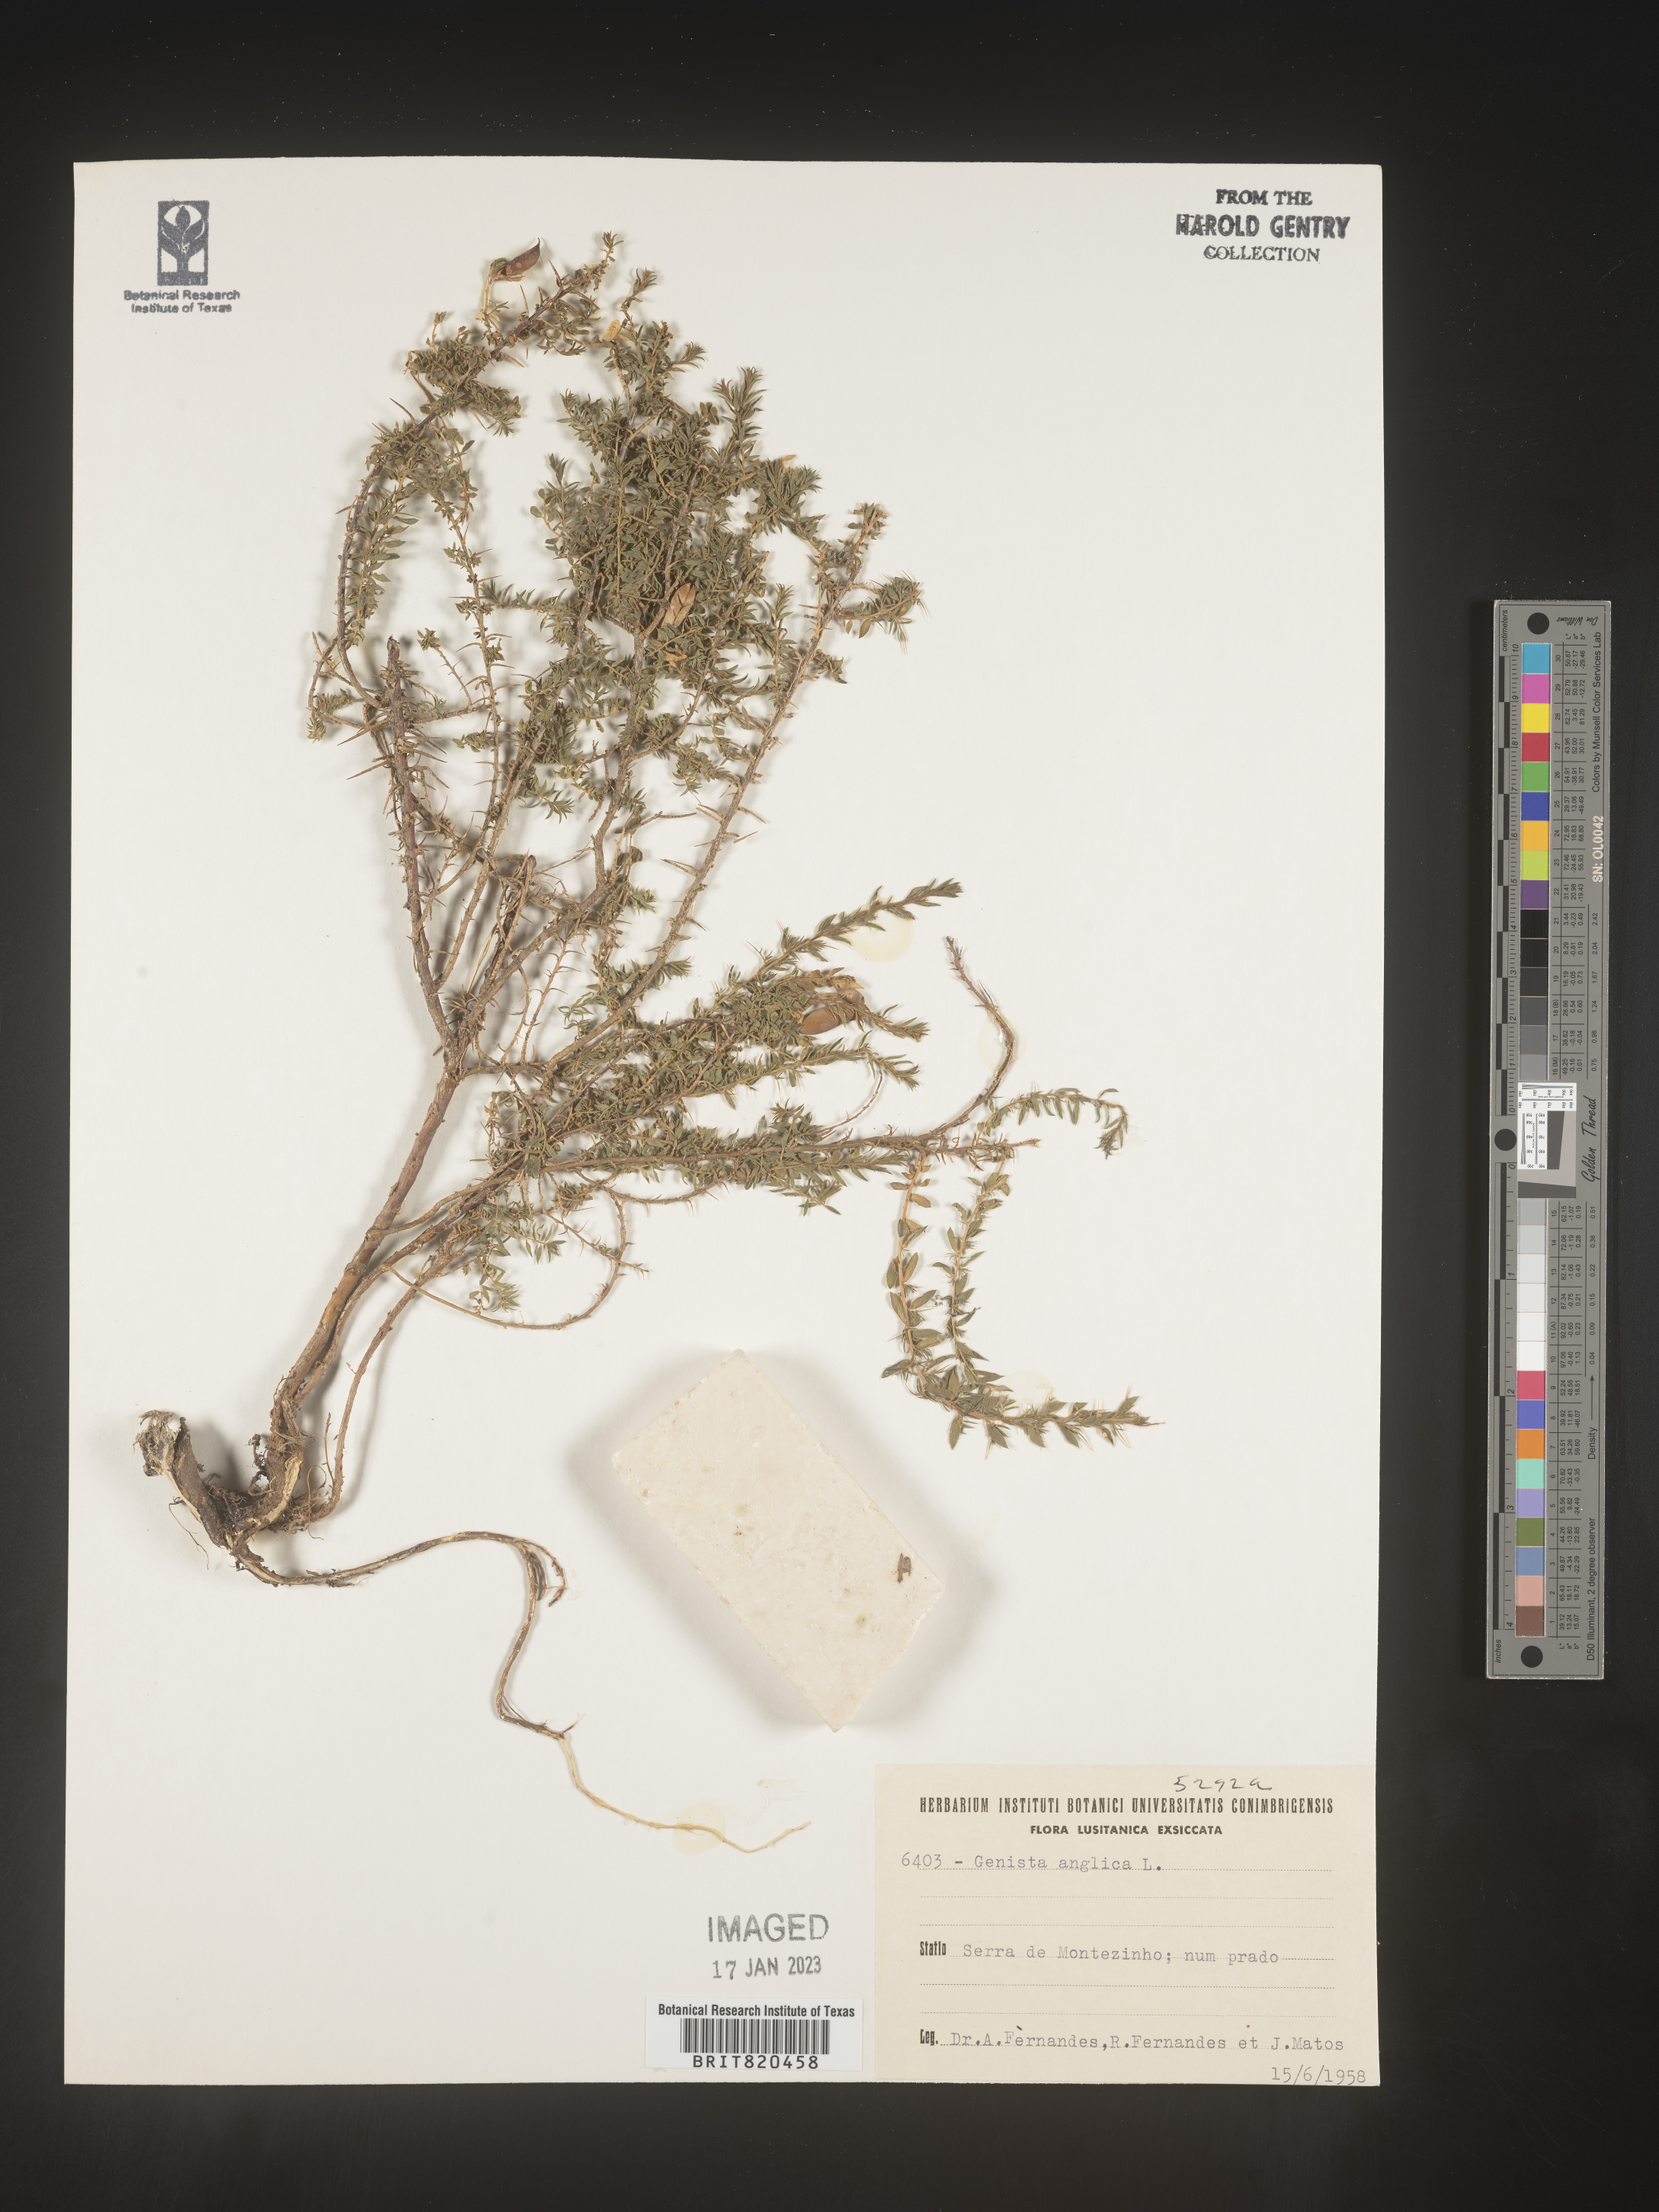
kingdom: Plantae
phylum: Tracheophyta
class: Magnoliopsida
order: Fabales
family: Fabaceae
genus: Genista
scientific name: Genista
